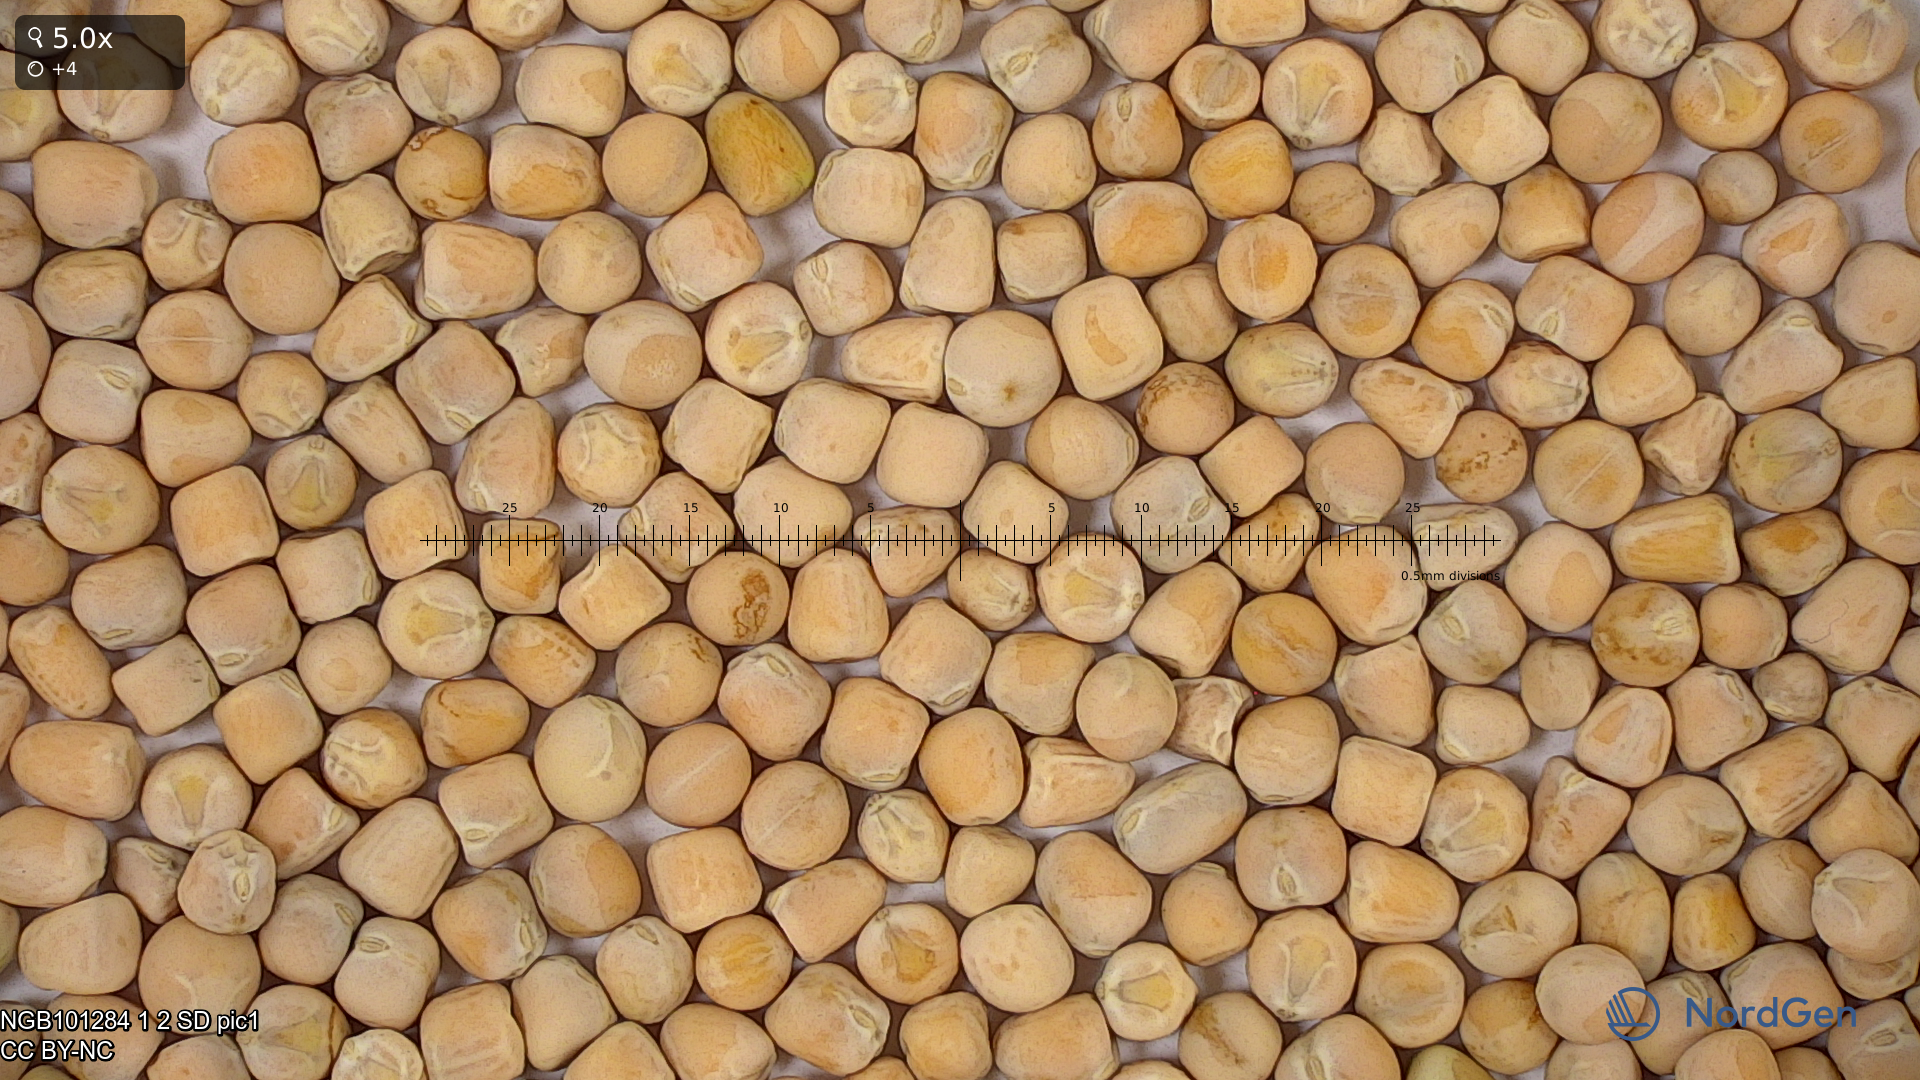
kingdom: Plantae
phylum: Tracheophyta
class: Magnoliopsida
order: Fabales
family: Fabaceae
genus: Lathyrus
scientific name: Lathyrus oleraceus
